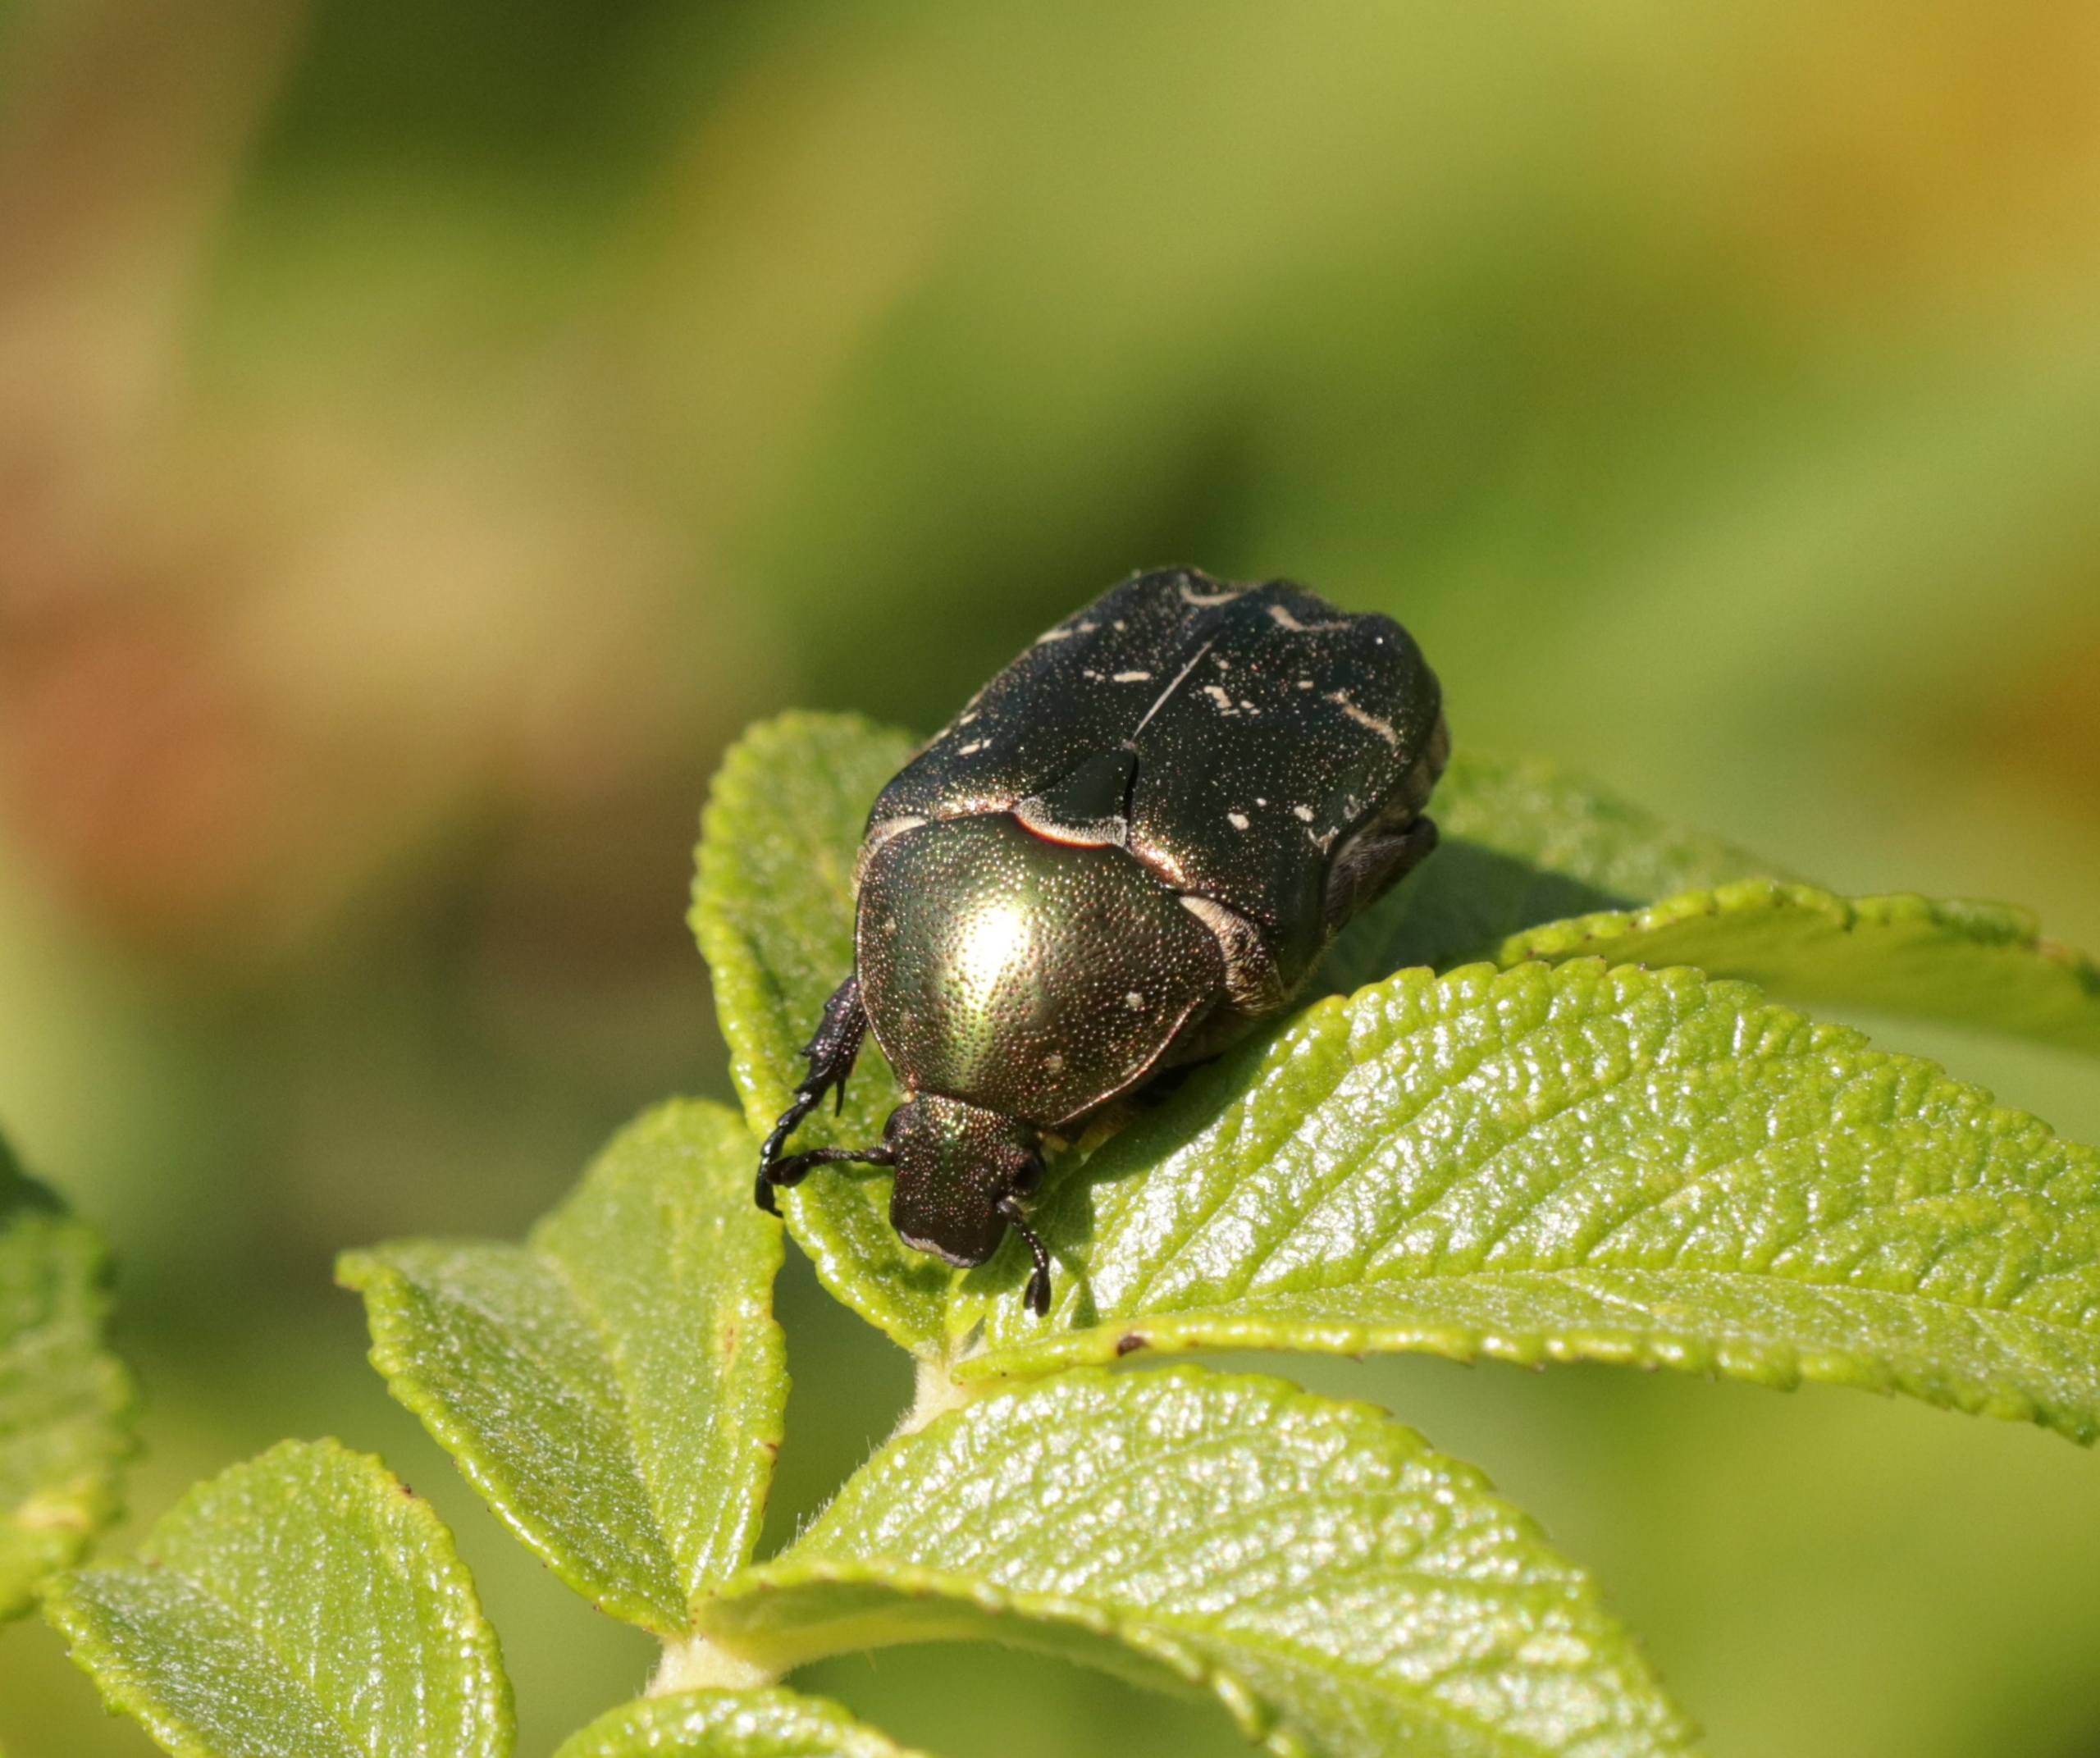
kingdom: Animalia
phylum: Arthropoda
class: Insecta
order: Coleoptera
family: Scarabaeidae
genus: Protaetia
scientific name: Protaetia cuprea
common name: Kobberguldbasse
